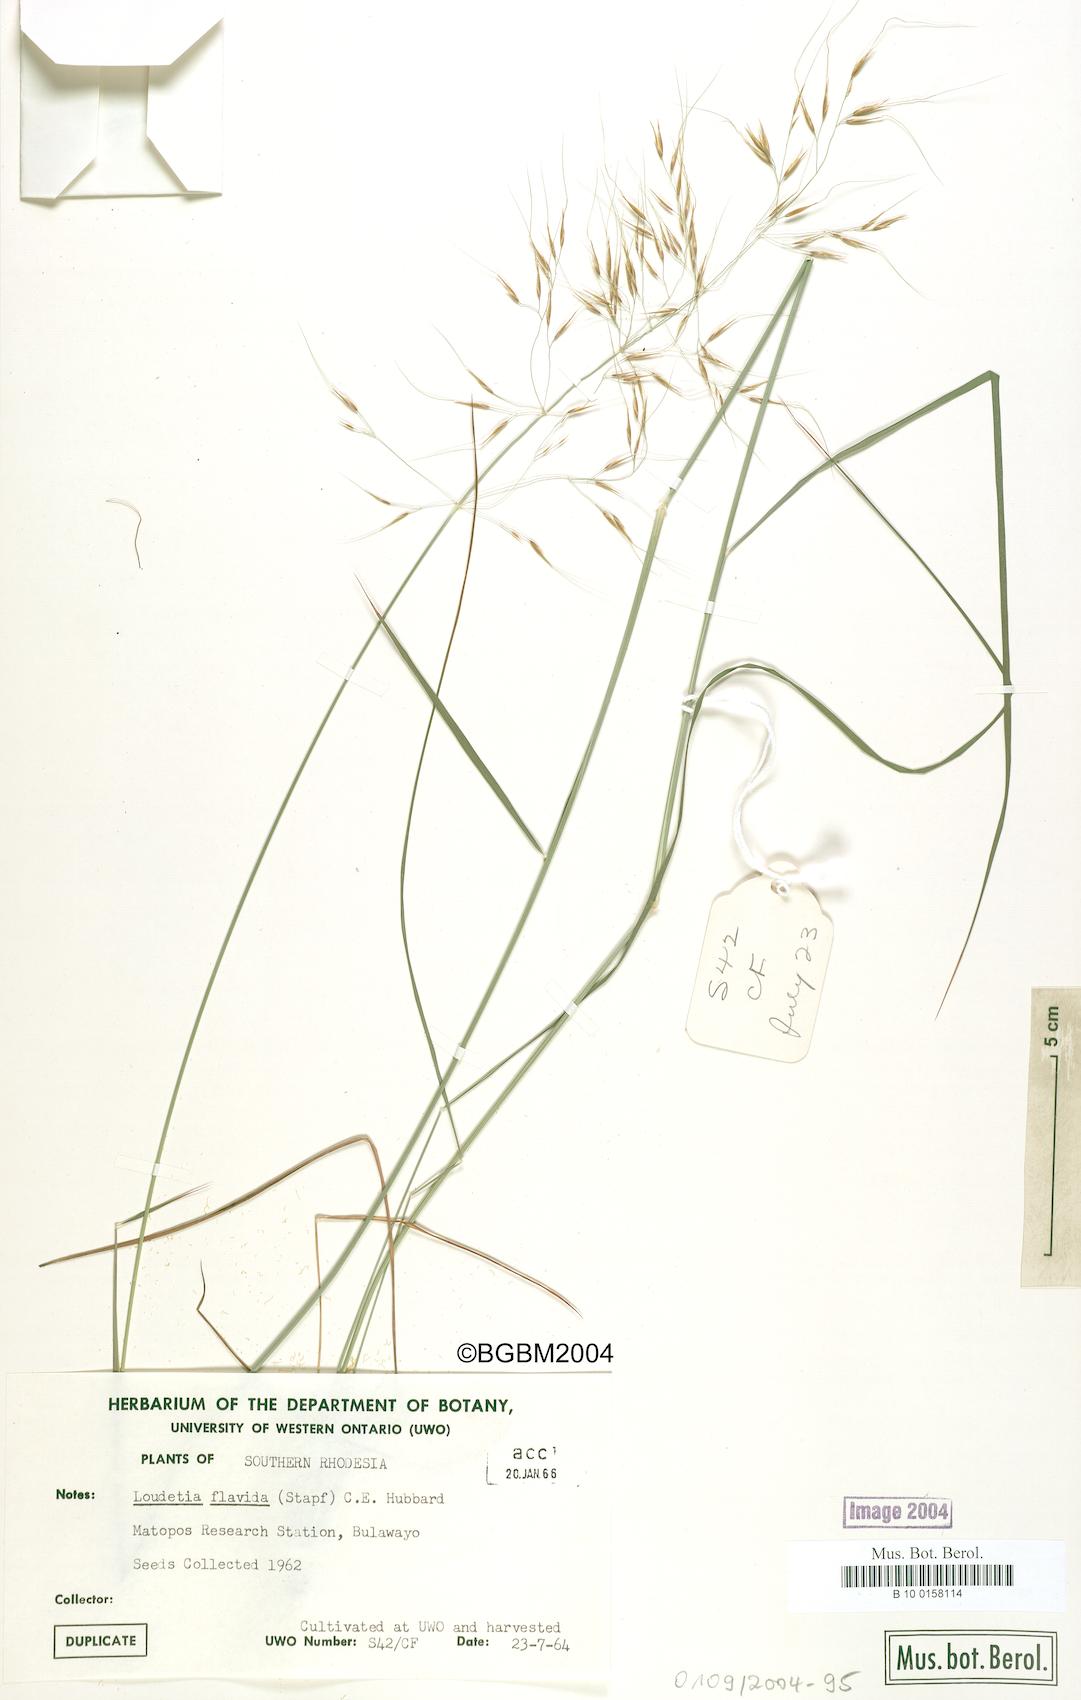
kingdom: Plantae
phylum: Tracheophyta
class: Liliopsida
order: Poales
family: Poaceae
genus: Loudetia
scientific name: Loudetia flavida
